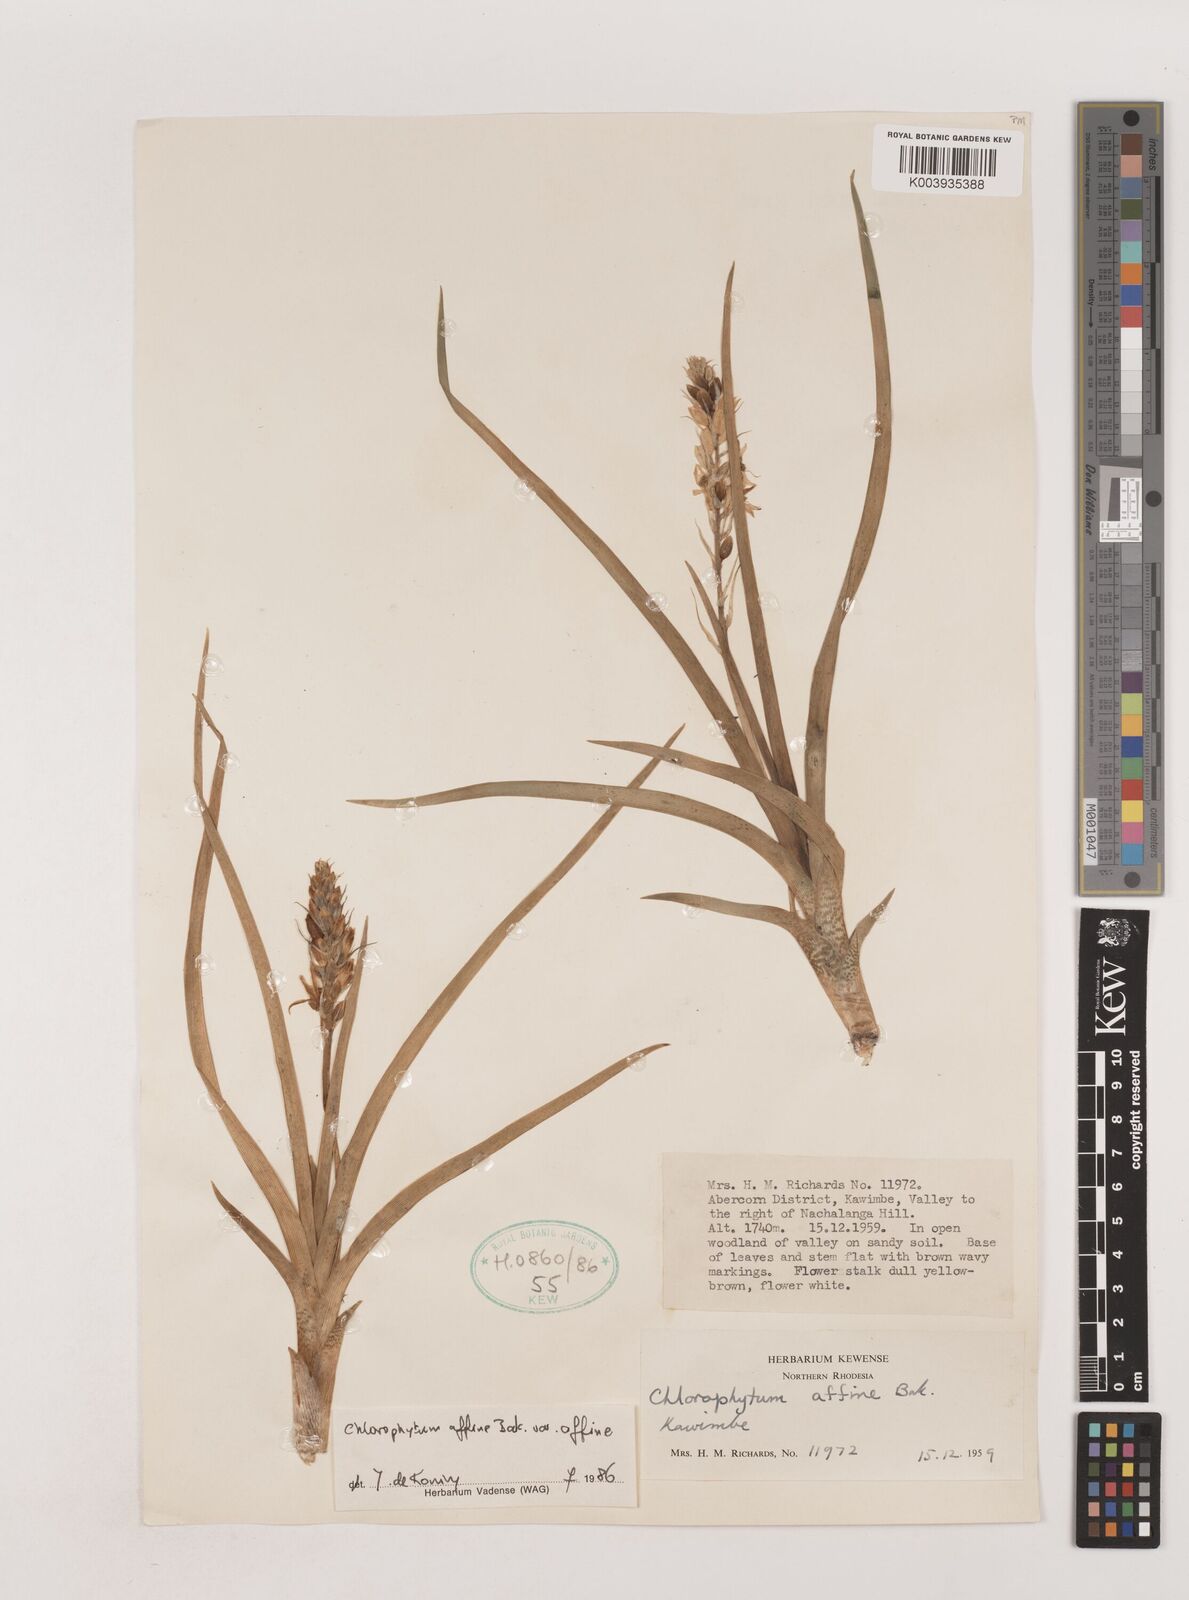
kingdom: Plantae
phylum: Tracheophyta
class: Liliopsida
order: Asparagales
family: Asparagaceae
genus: Chlorophytum
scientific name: Chlorophytum affine
